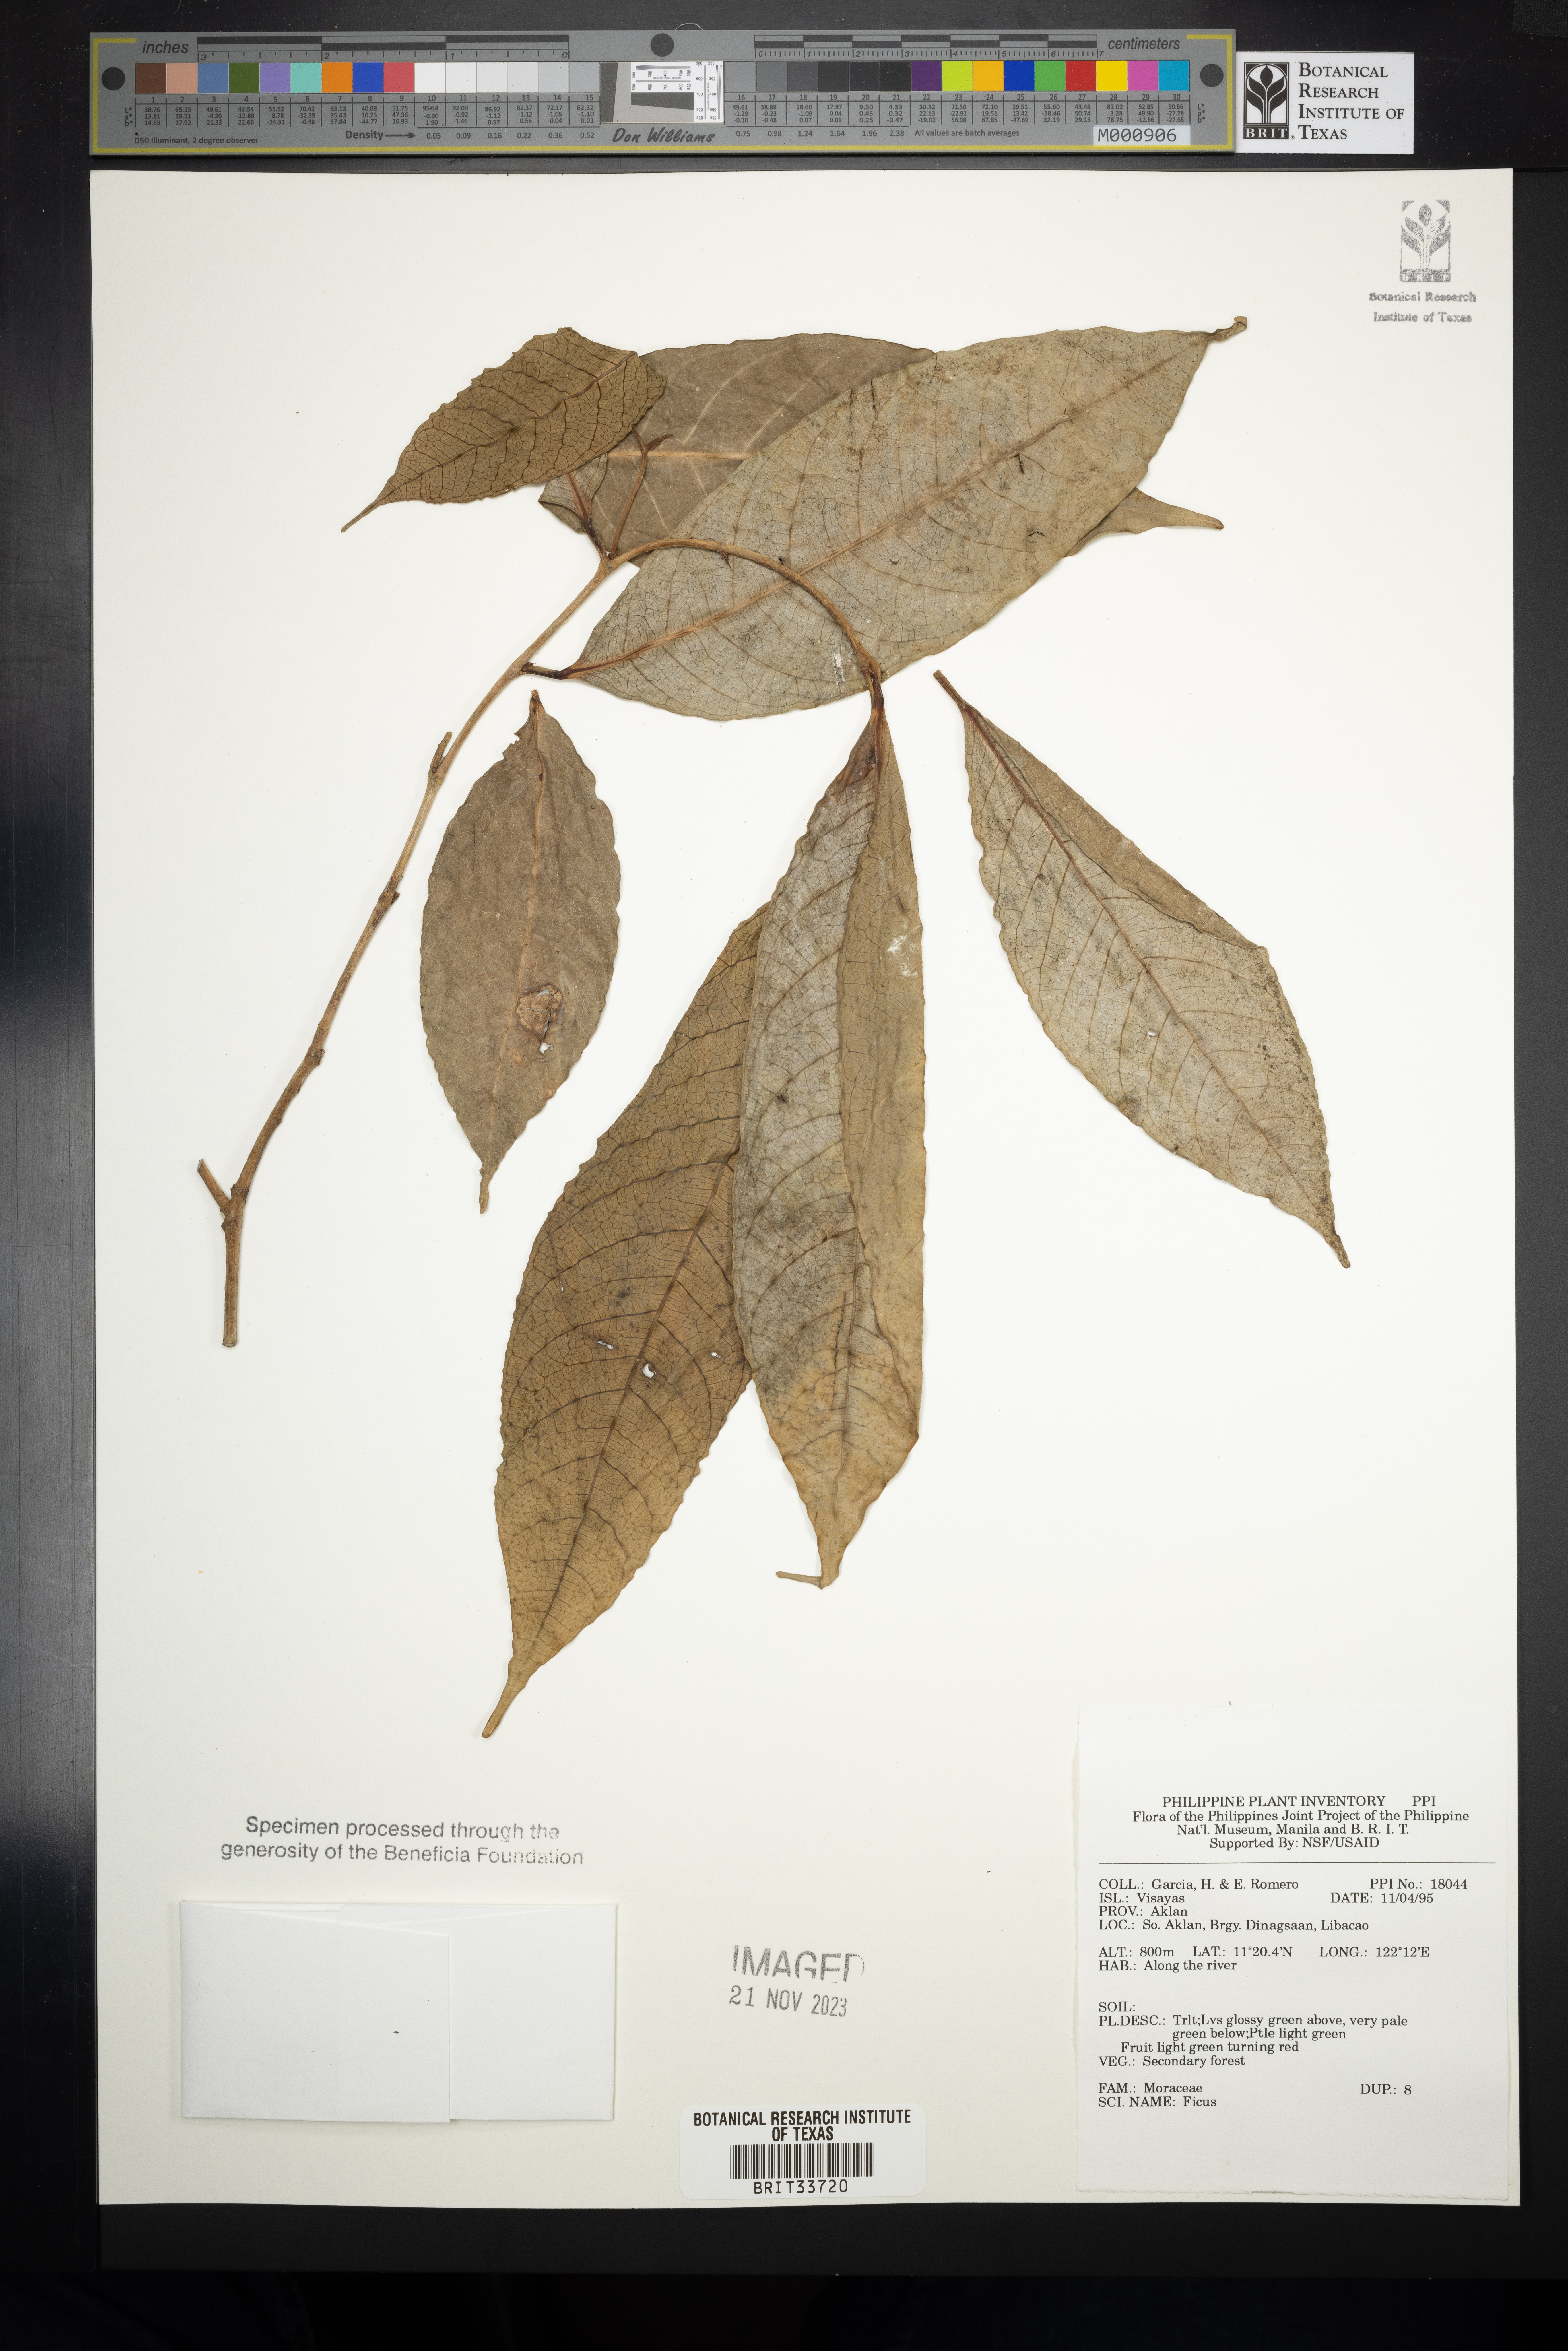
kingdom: Plantae
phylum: Tracheophyta
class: Magnoliopsida
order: Rosales
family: Moraceae
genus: Ficus
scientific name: Ficus
